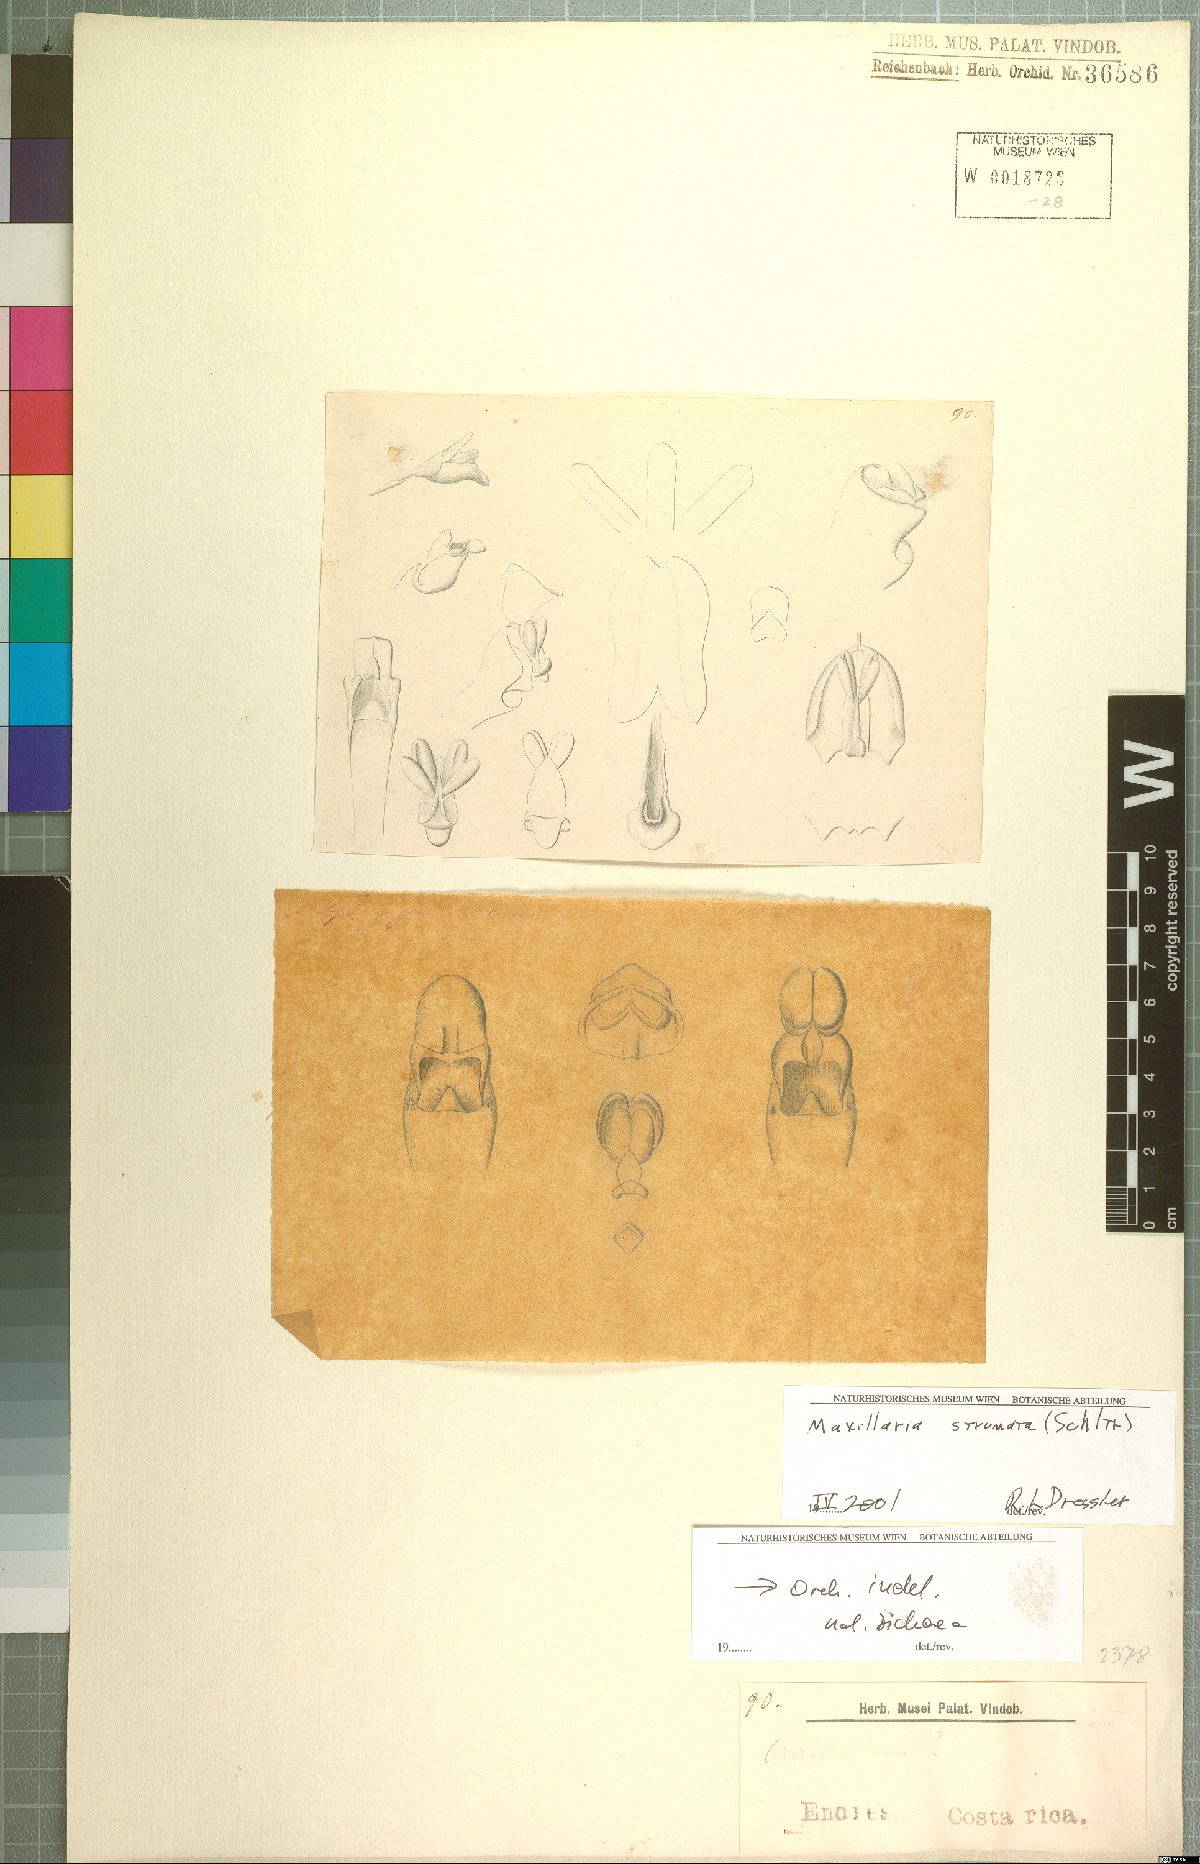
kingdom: Plantae
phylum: Tracheophyta
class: Liliopsida
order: Asparagales
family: Orchidaceae
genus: Maxillaria
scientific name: Maxillaria strumata
